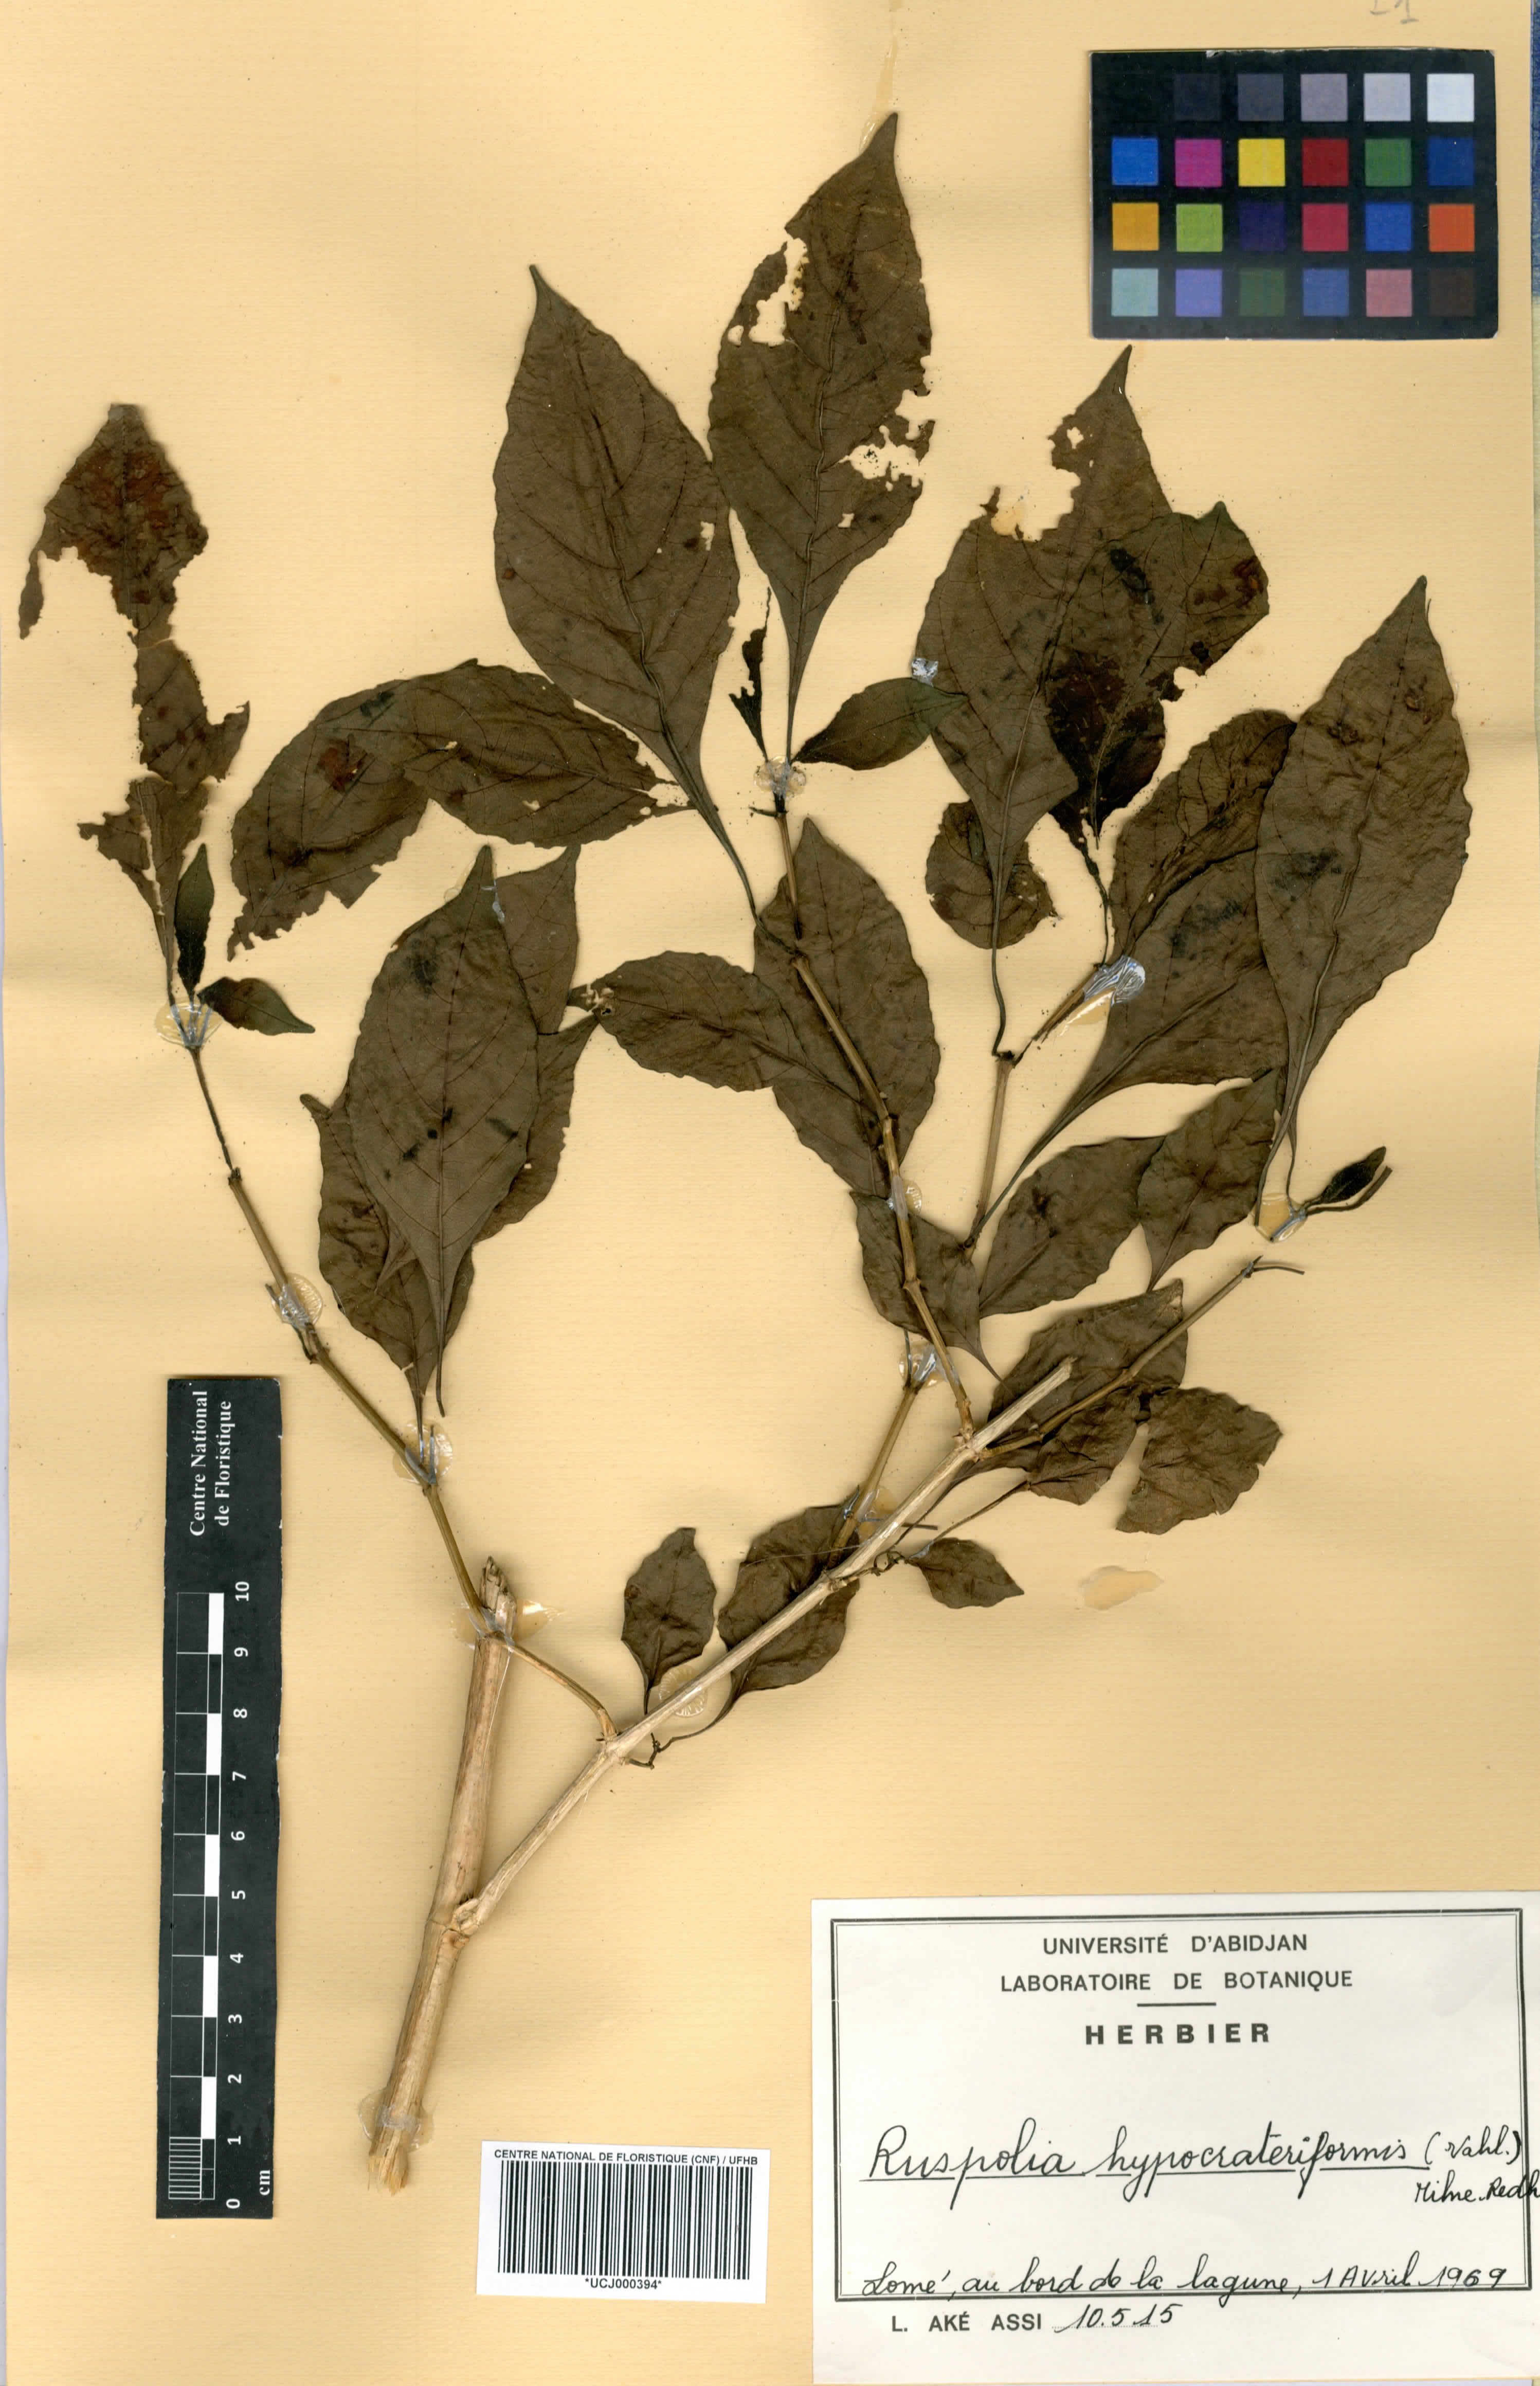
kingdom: Plantae
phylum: Tracheophyta
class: Magnoliopsida
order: Lamiales
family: Acanthaceae
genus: Ruspolia
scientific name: Ruspolia hypocrateriformis
